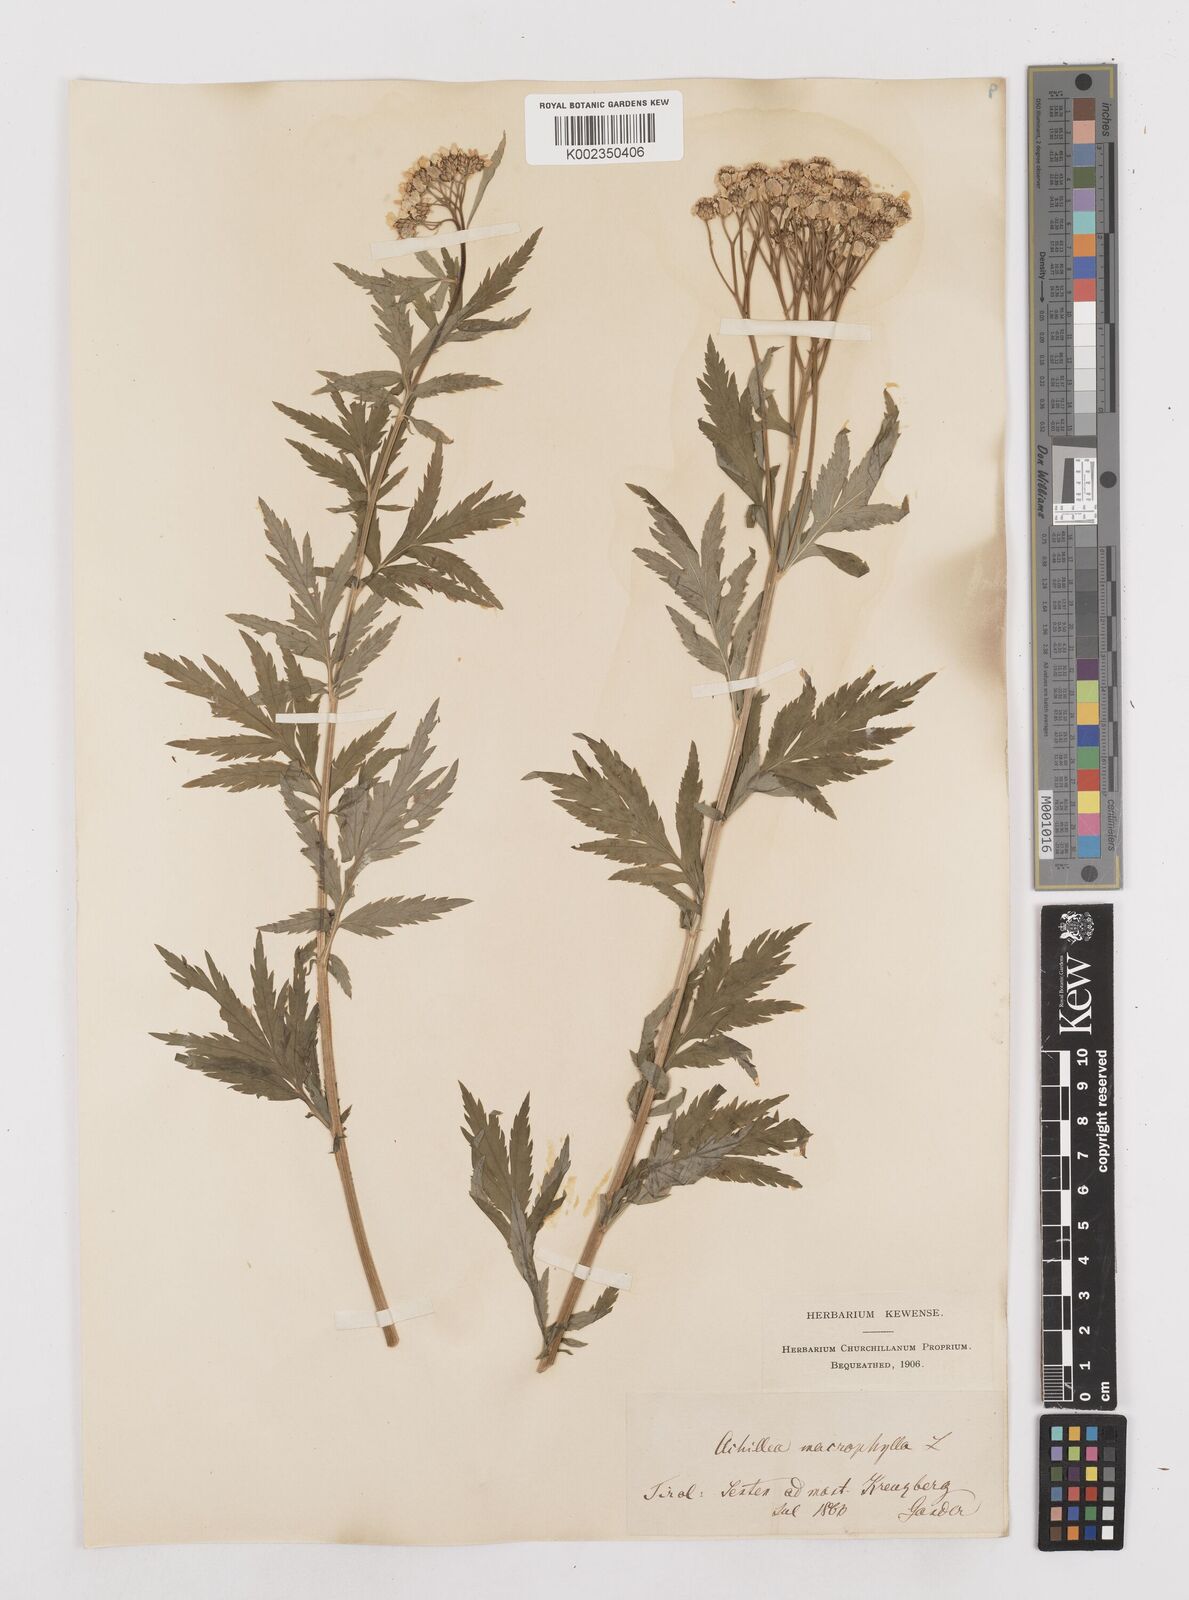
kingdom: Plantae
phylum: Tracheophyta
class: Magnoliopsida
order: Asterales
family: Asteraceae
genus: Achillea
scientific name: Achillea macrophylla
